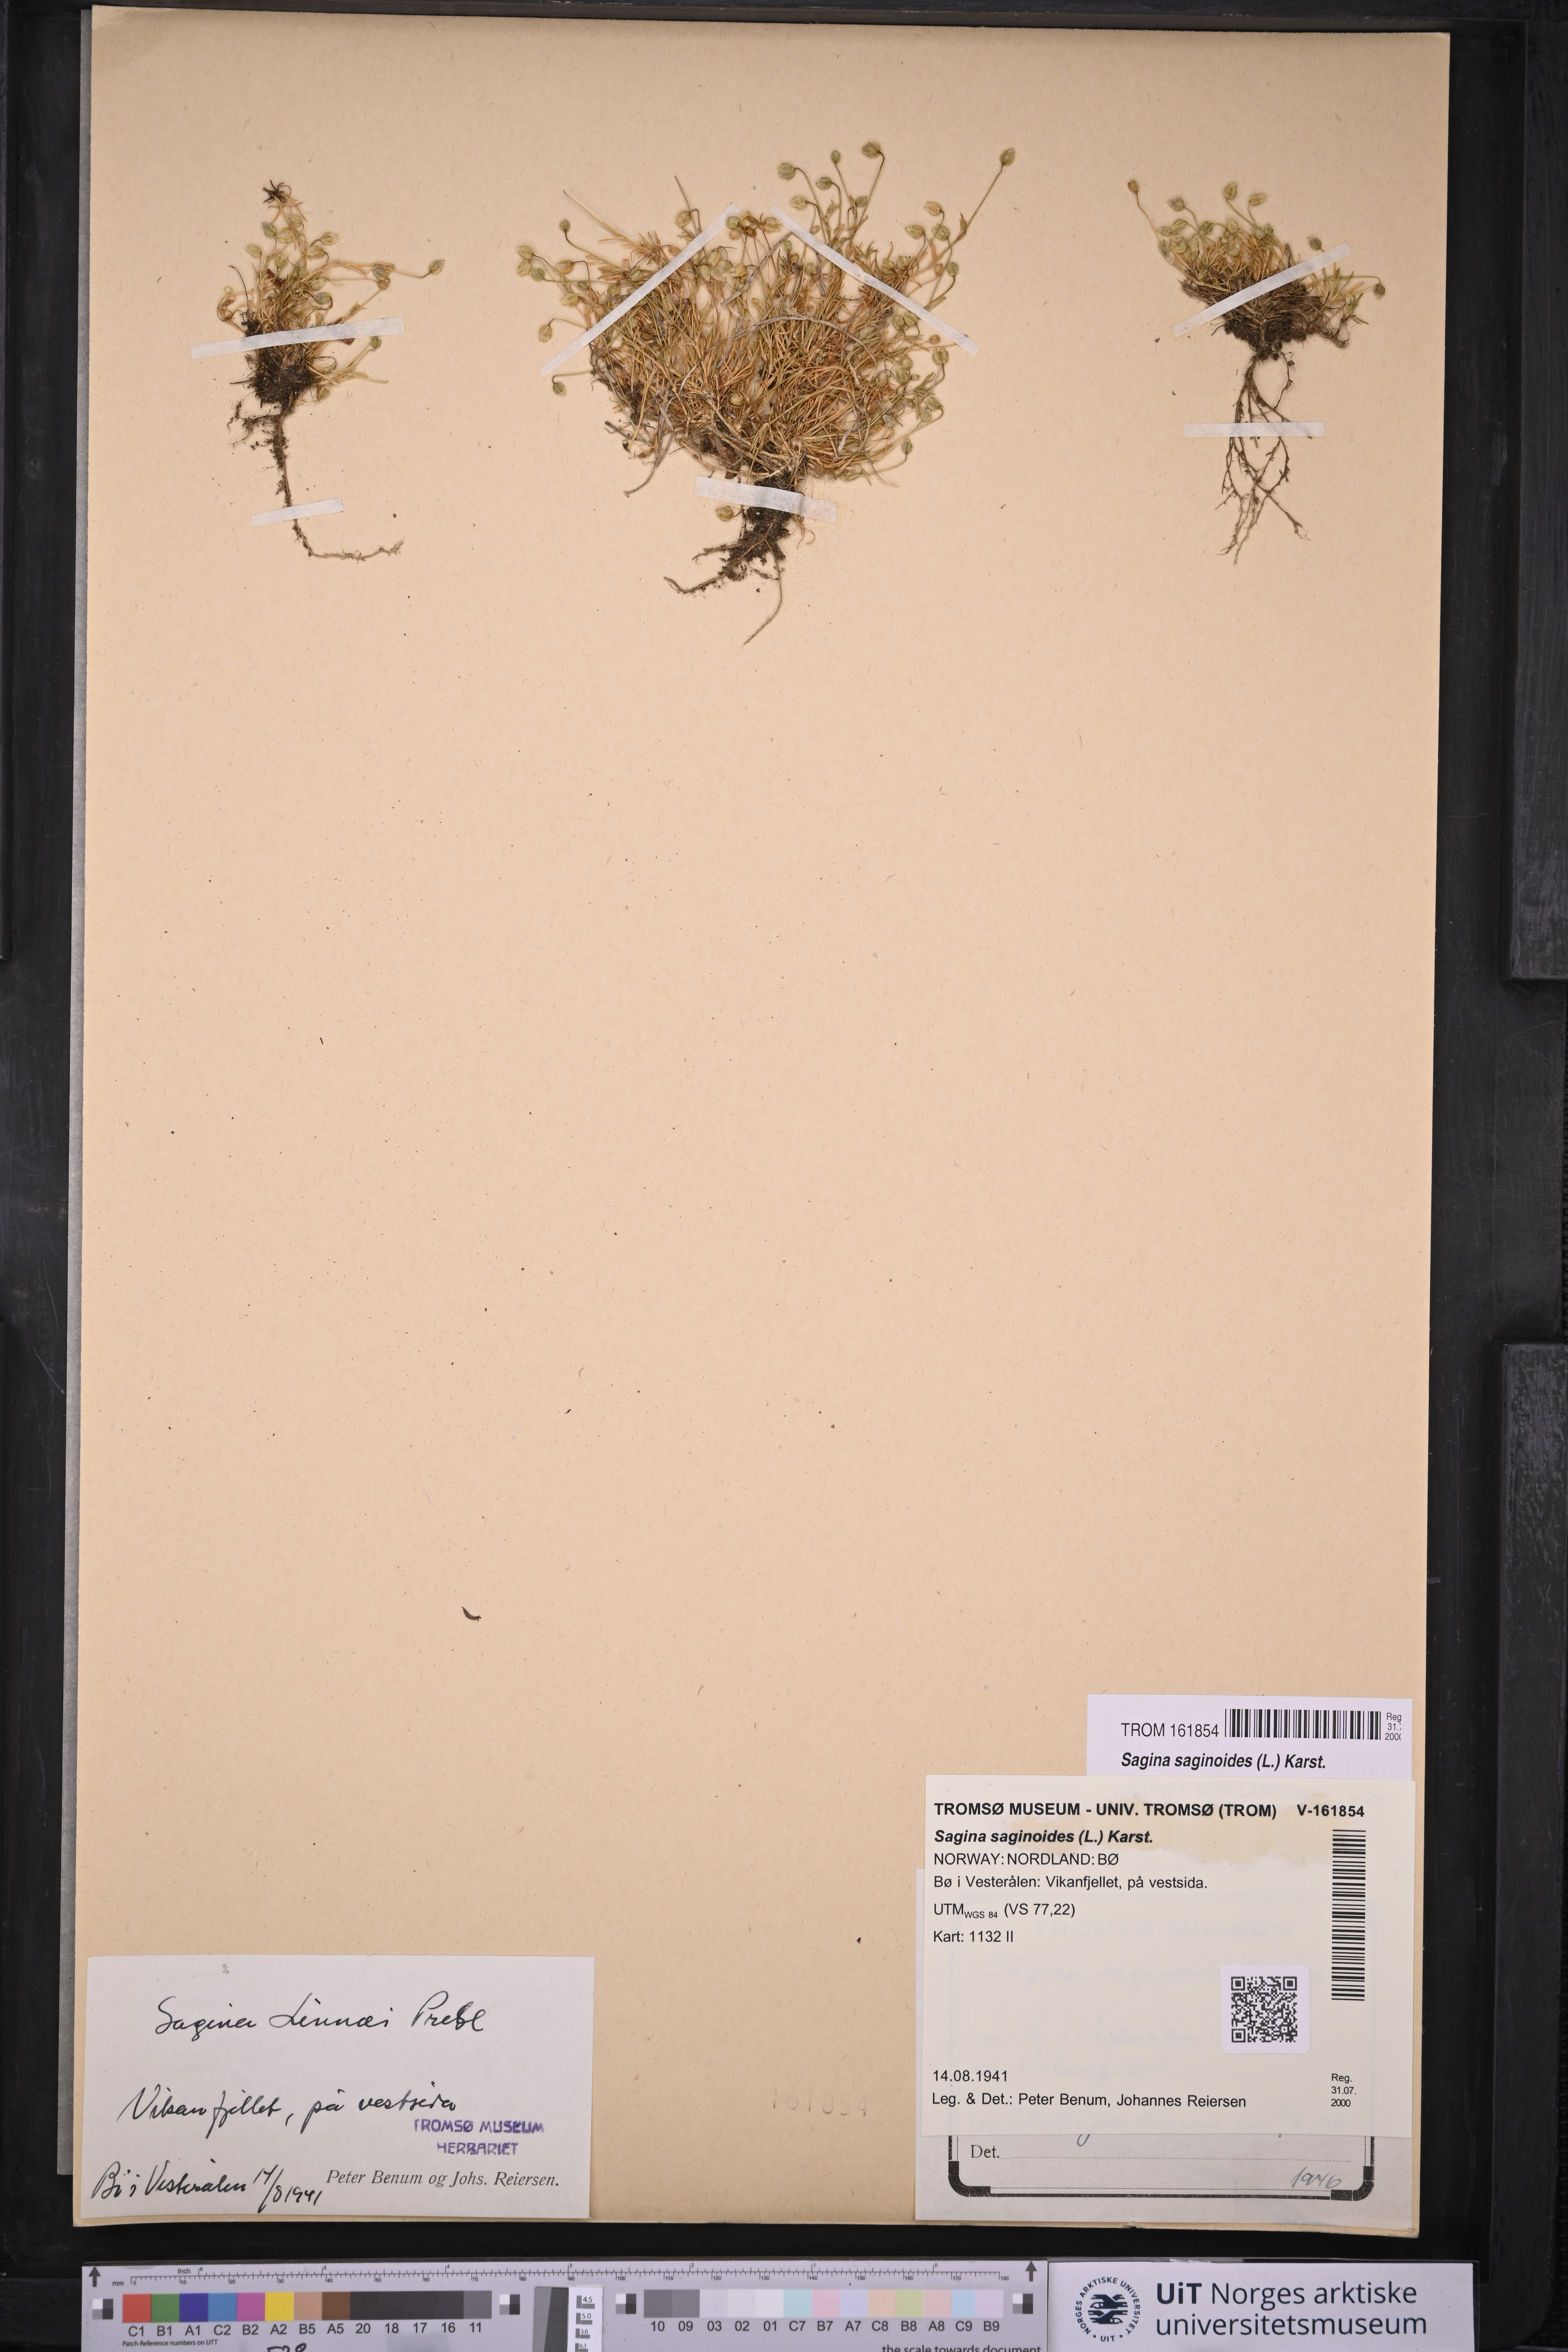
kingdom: Plantae
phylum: Tracheophyta
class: Magnoliopsida
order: Caryophyllales
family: Caryophyllaceae
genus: Sagina
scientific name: Sagina saginoides
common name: Alpine pearlwort
